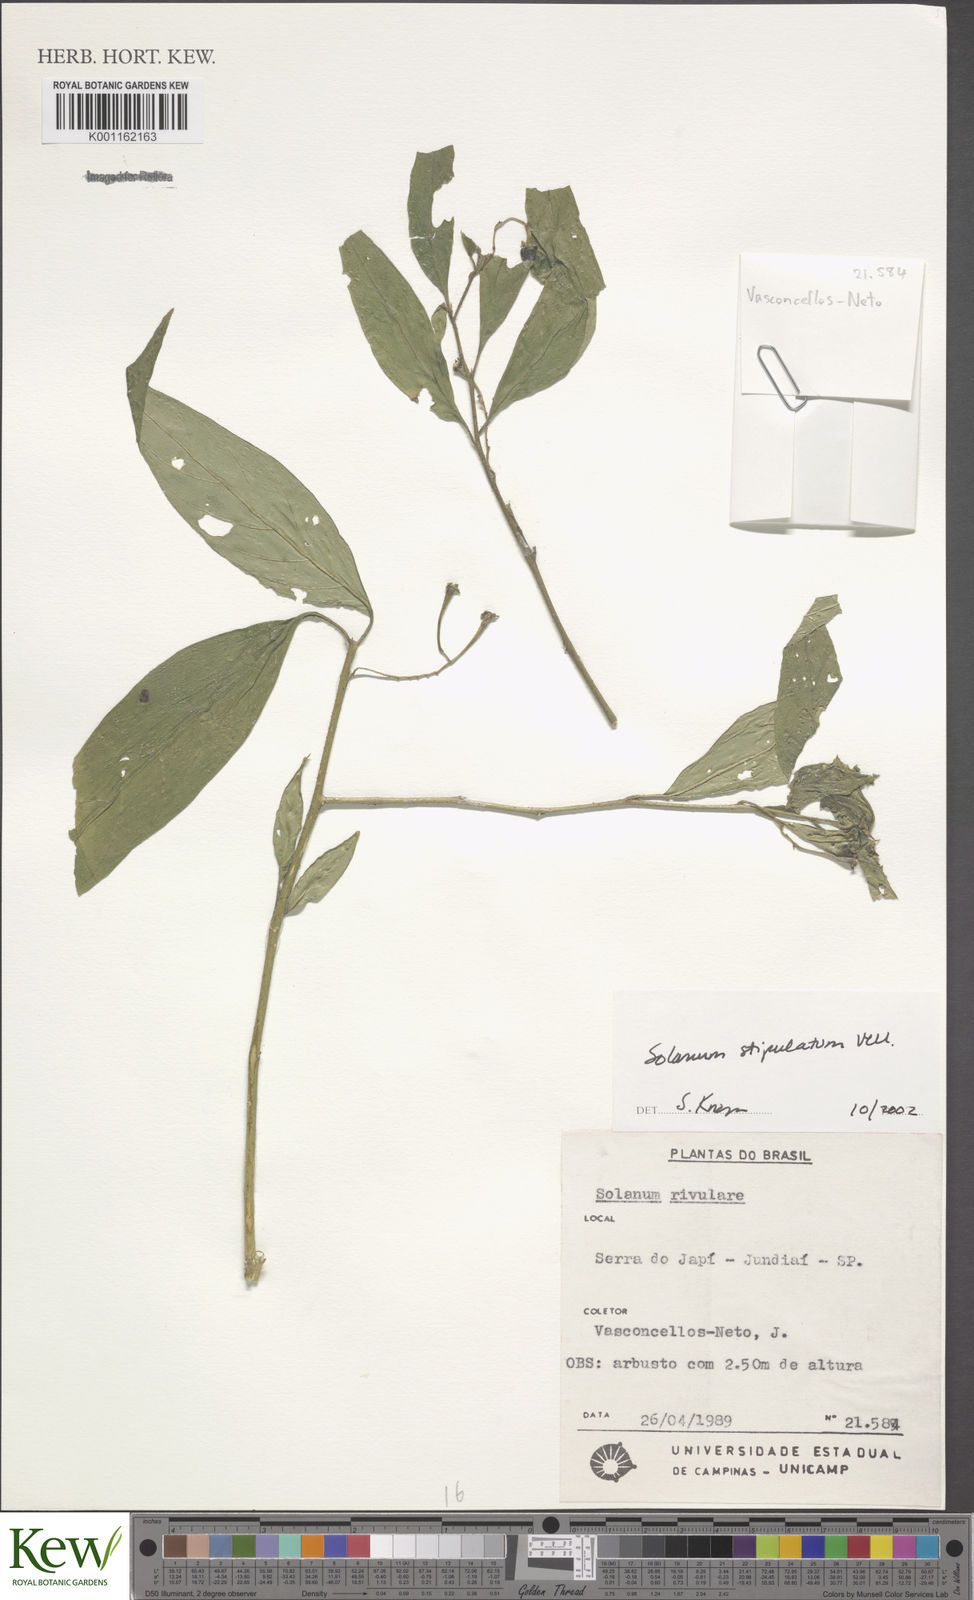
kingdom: Plantae
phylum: Tracheophyta
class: Magnoliopsida
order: Solanales
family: Solanaceae
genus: Solanum
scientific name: Solanum stipulatum
